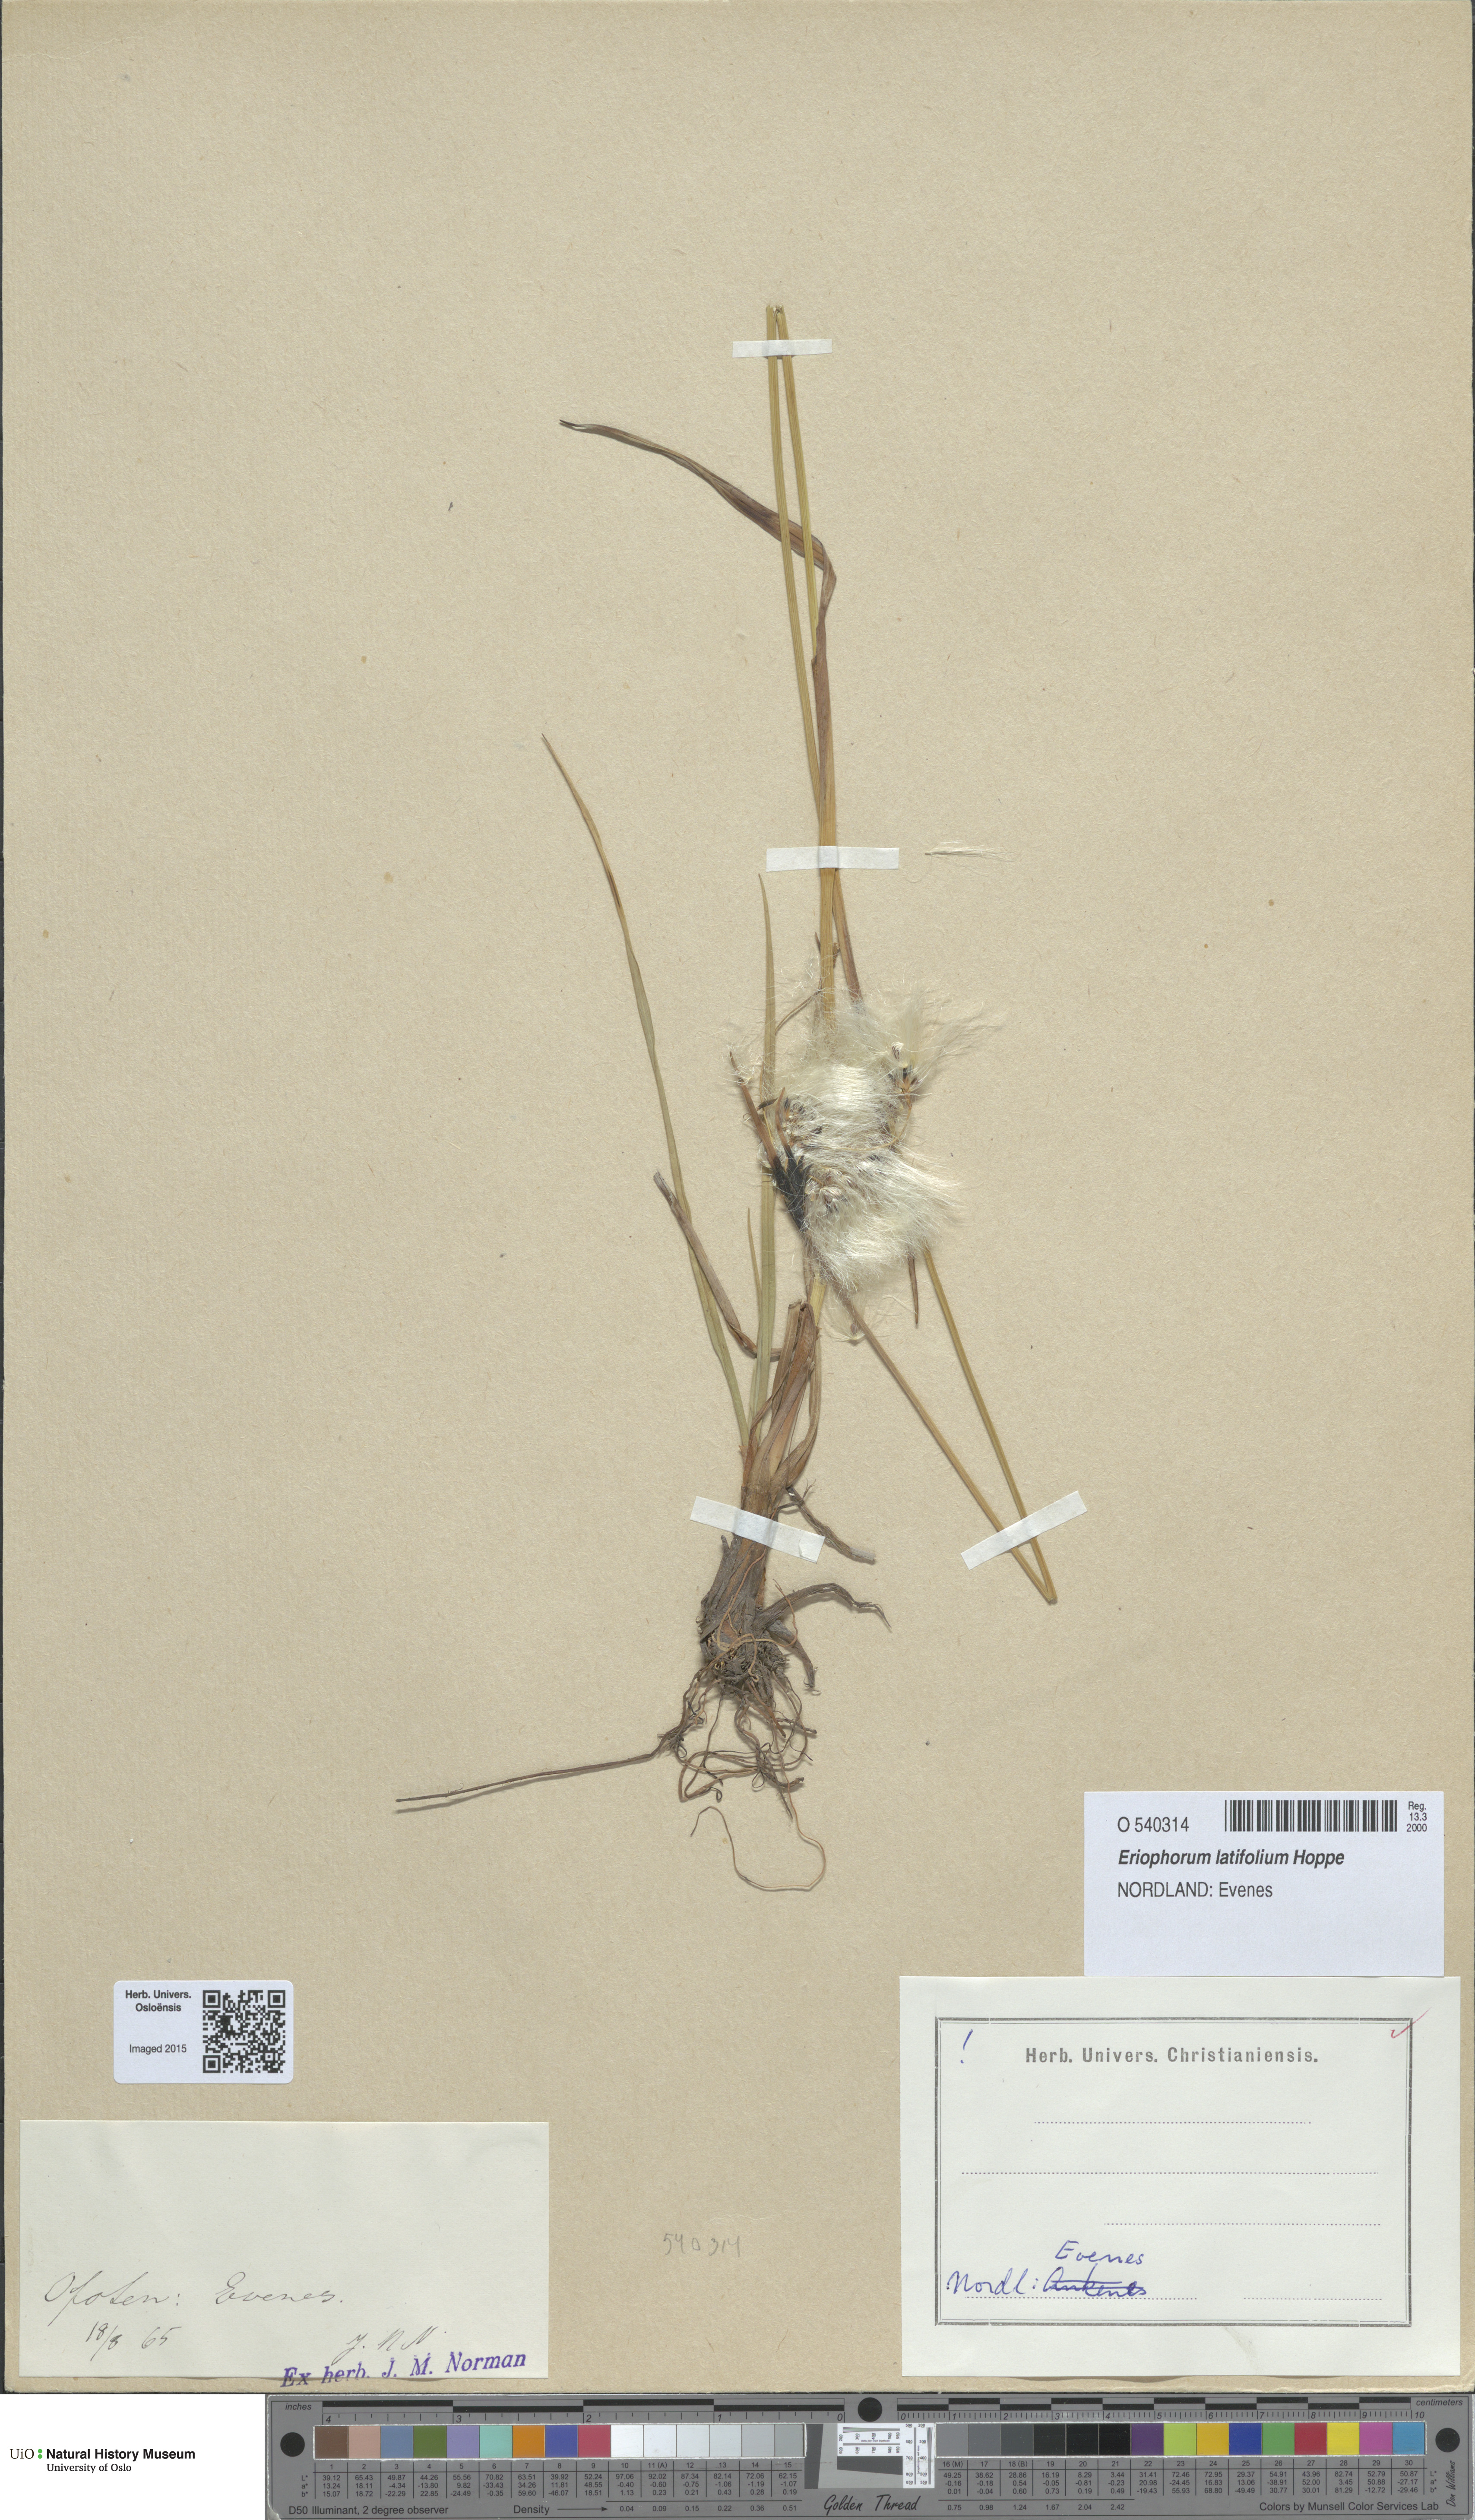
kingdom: Plantae
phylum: Tracheophyta
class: Liliopsida
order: Poales
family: Cyperaceae
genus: Eriophorum
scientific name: Eriophorum latifolium
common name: Broad-leaved cottongrass
